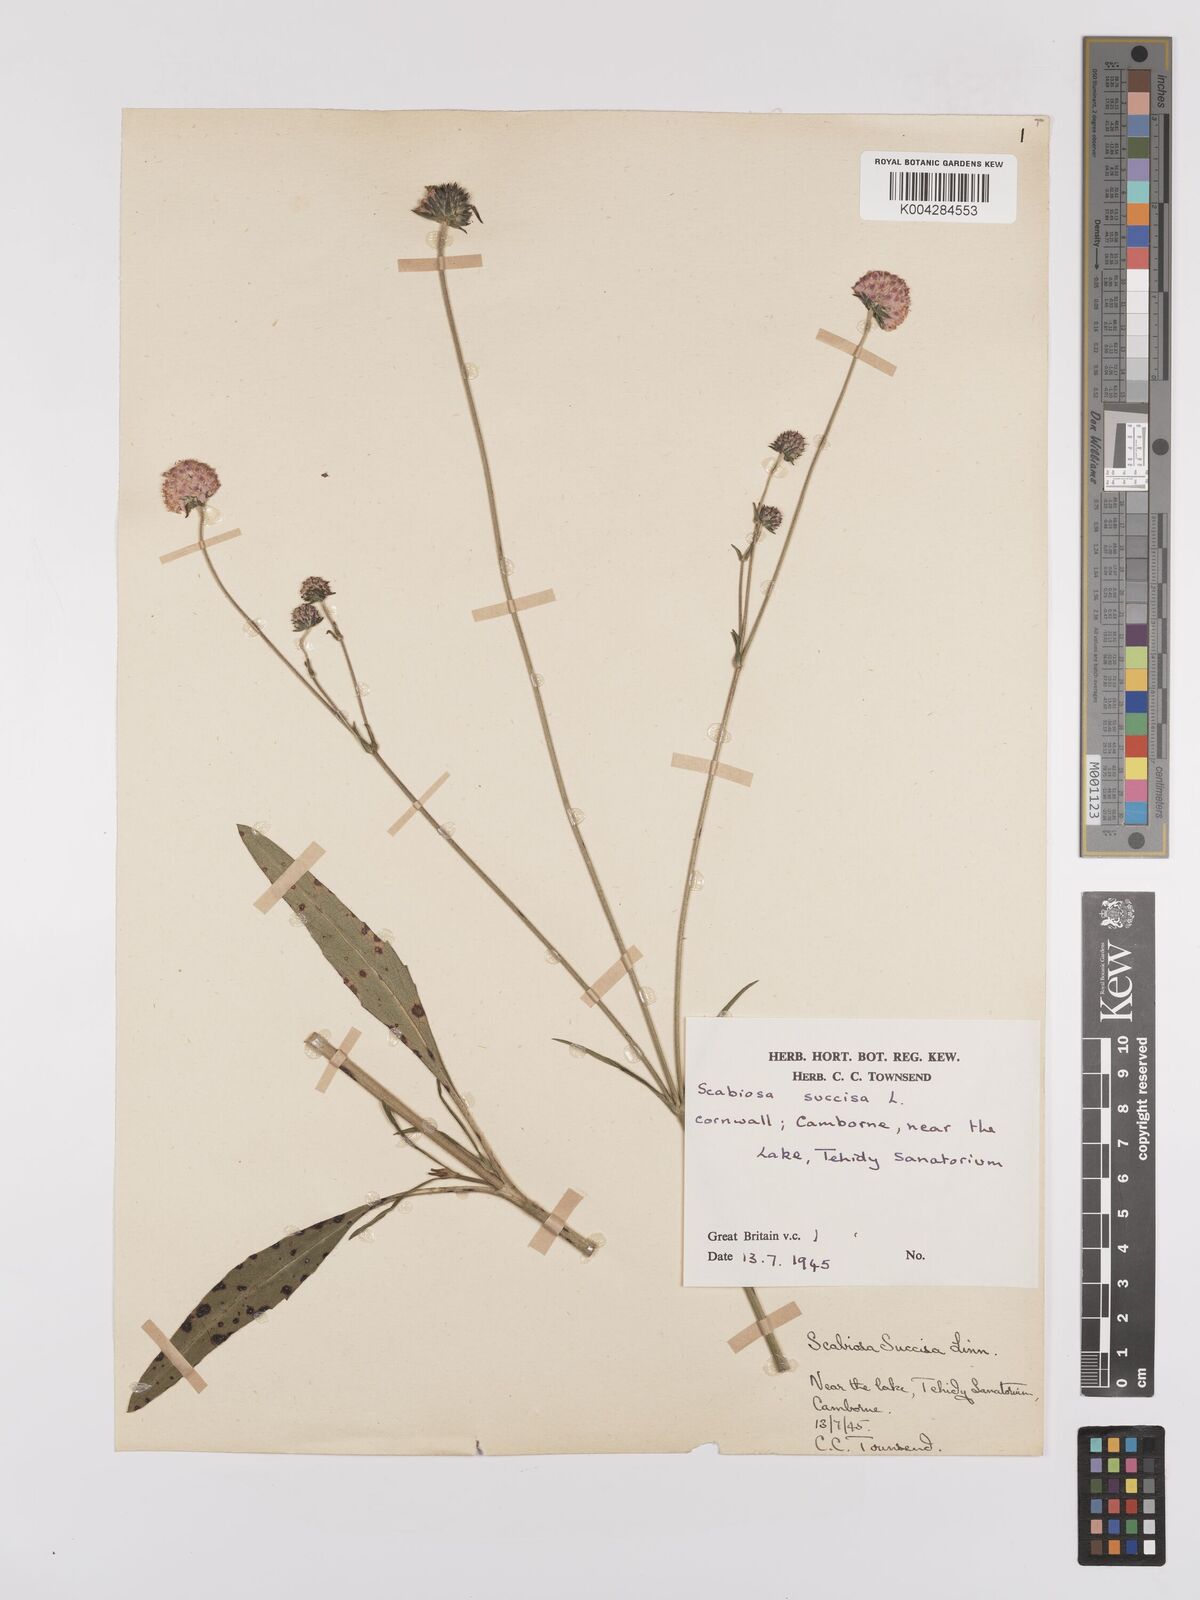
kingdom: Plantae
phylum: Tracheophyta
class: Magnoliopsida
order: Dipsacales
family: Caprifoliaceae
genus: Succisa
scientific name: Succisa pratensis
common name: Devil's-bit
